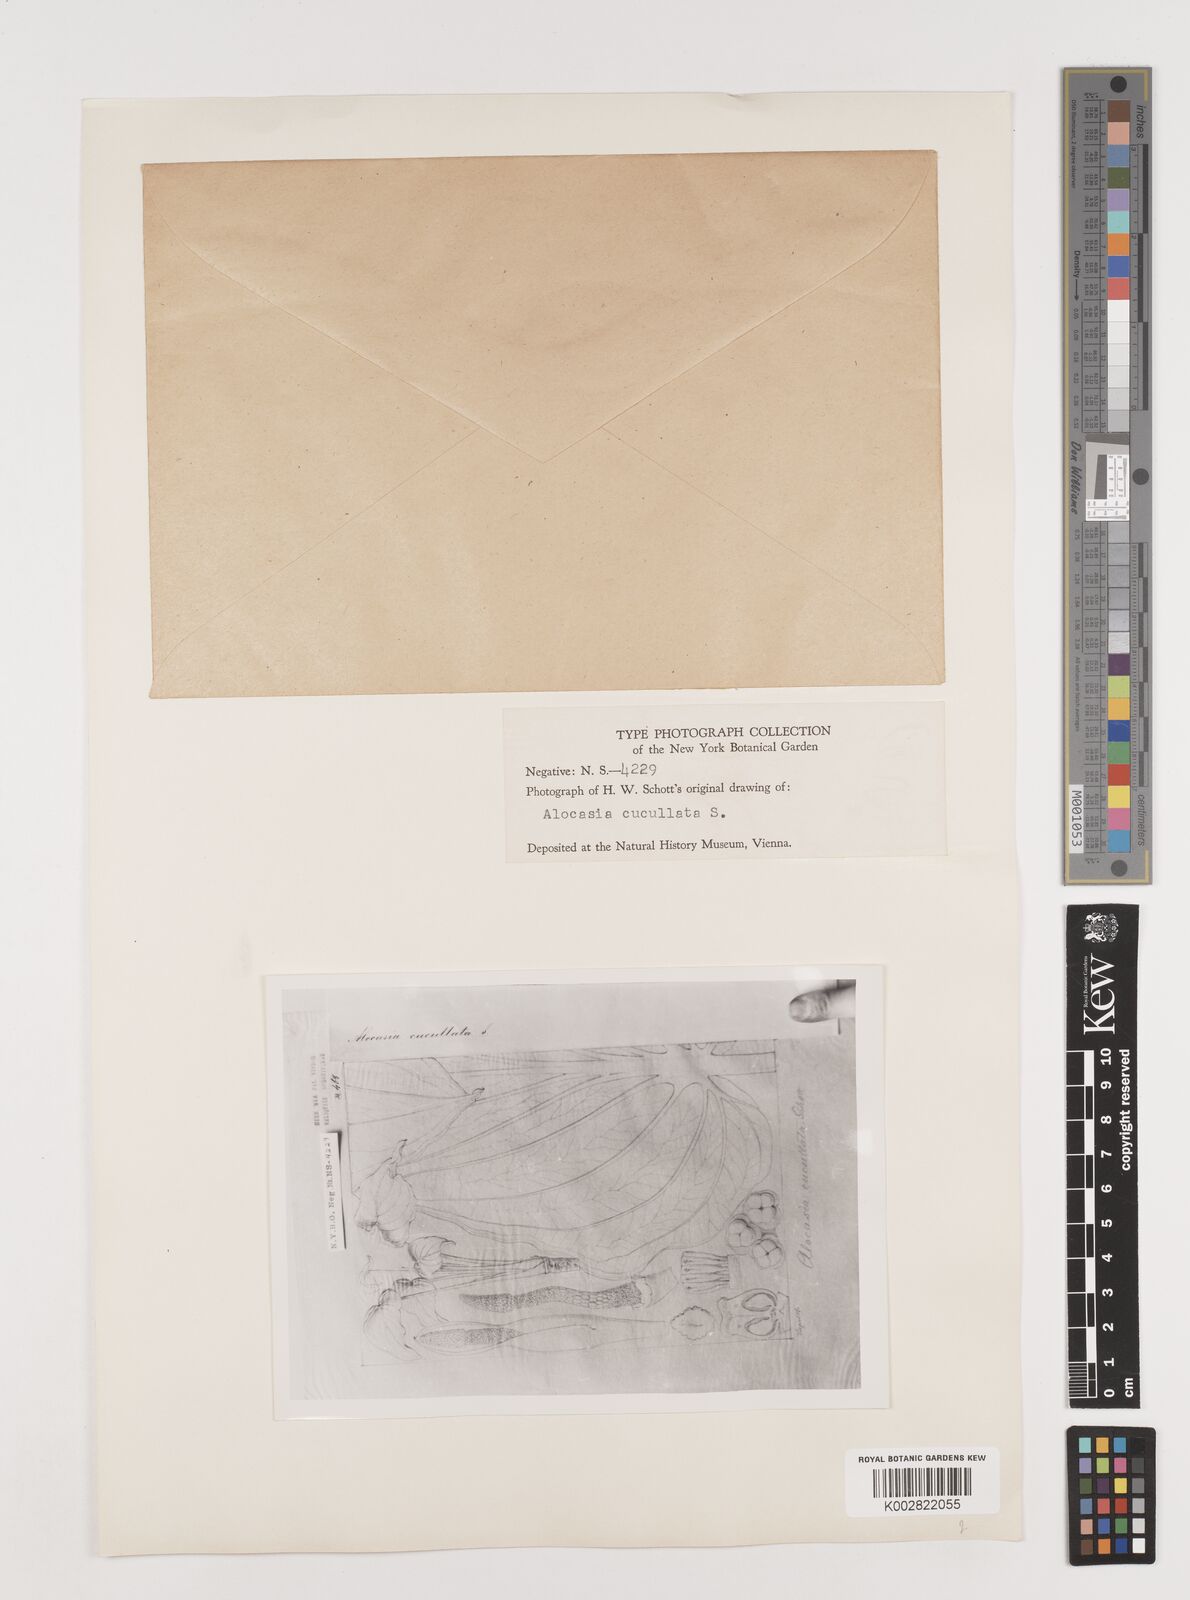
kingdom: Plantae
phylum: Tracheophyta
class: Liliopsida
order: Alismatales
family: Araceae
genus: Alocasia
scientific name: Alocasia cucullata
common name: Buddha's hand
